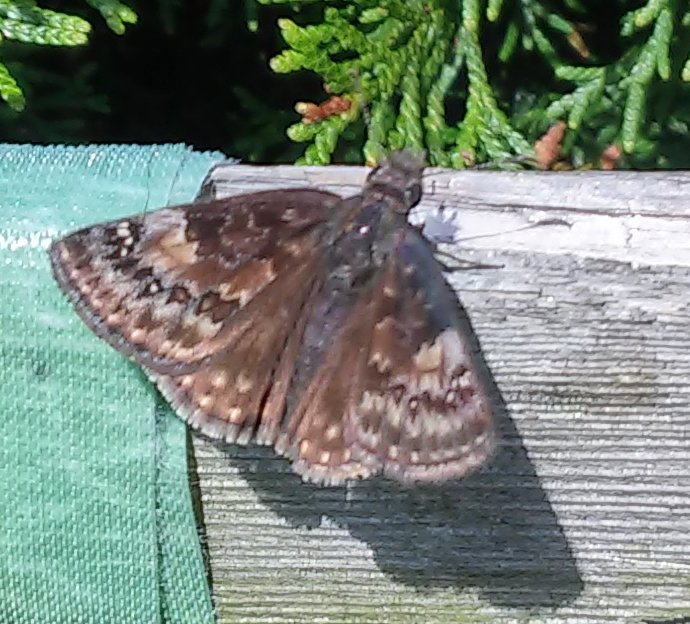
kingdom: Animalia
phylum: Arthropoda
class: Insecta
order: Lepidoptera
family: Hesperiidae
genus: Gesta
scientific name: Gesta
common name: Wild Indigo Duskywing
